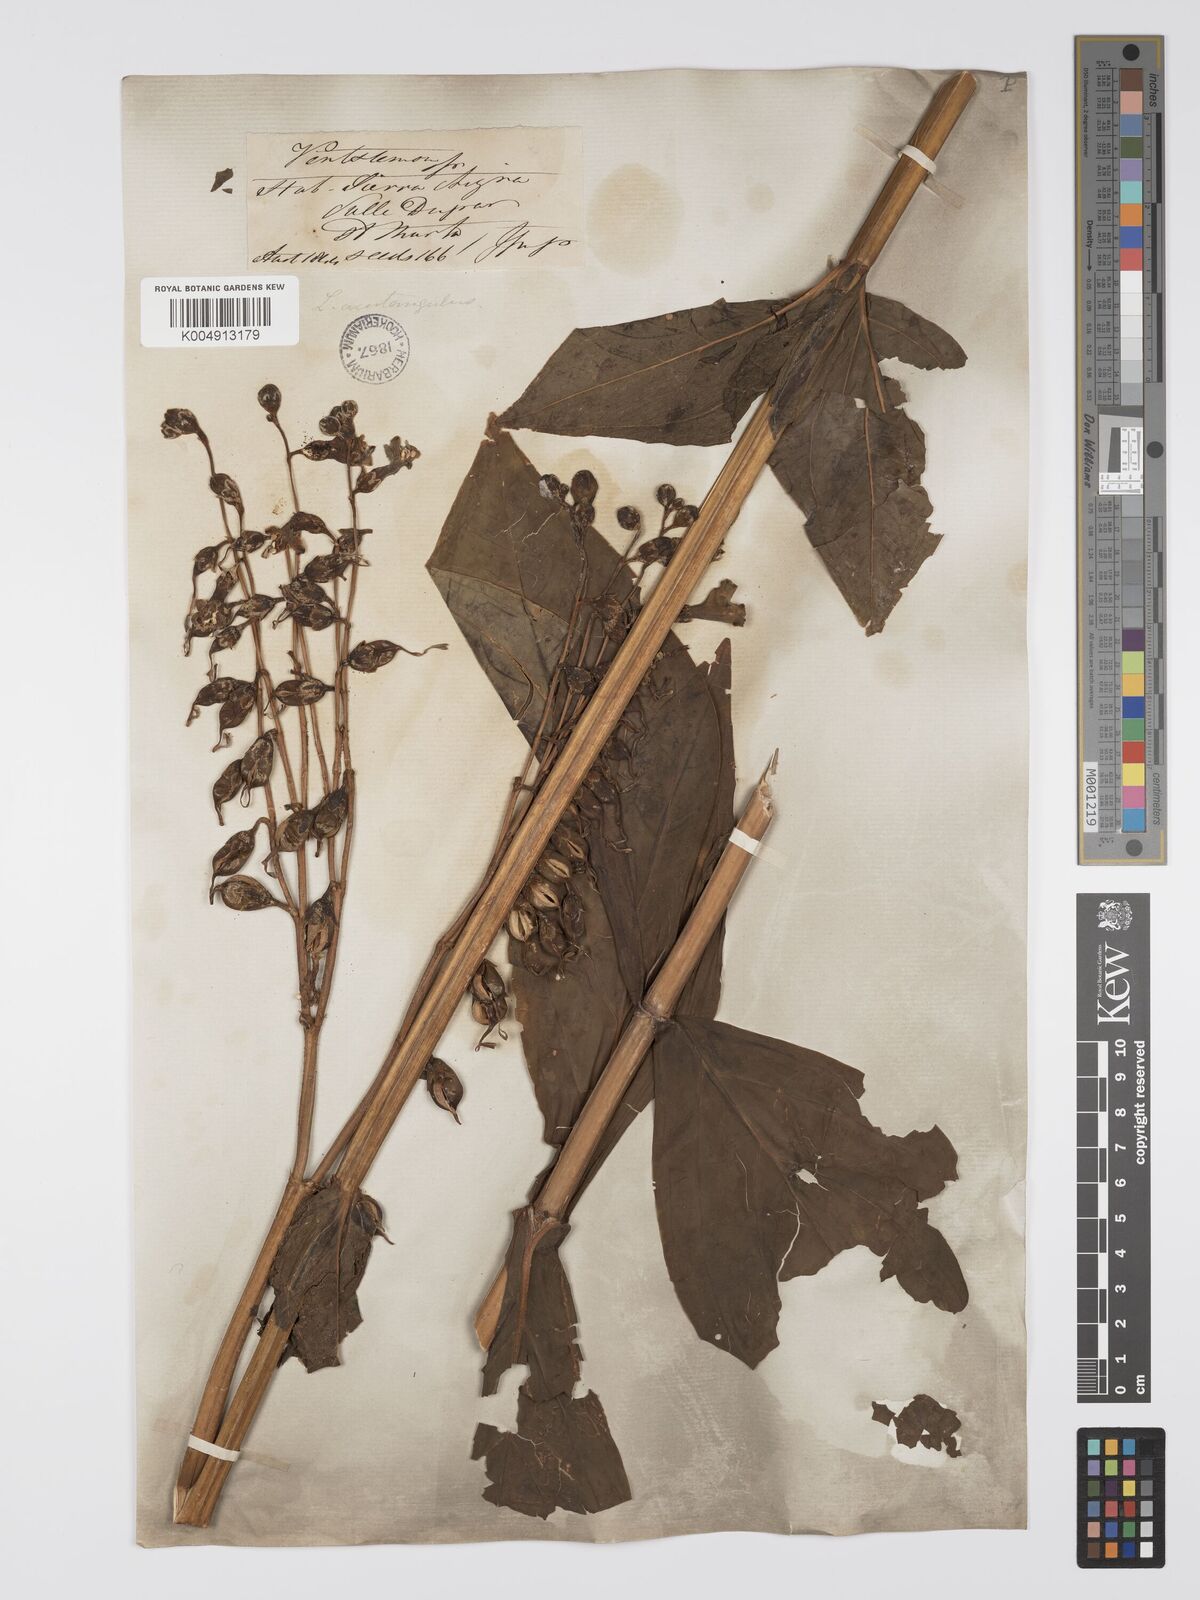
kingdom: Plantae
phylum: Tracheophyta
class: Magnoliopsida
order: Gentianales
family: Gentianaceae
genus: Chelonanthus
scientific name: Chelonanthus alatus
